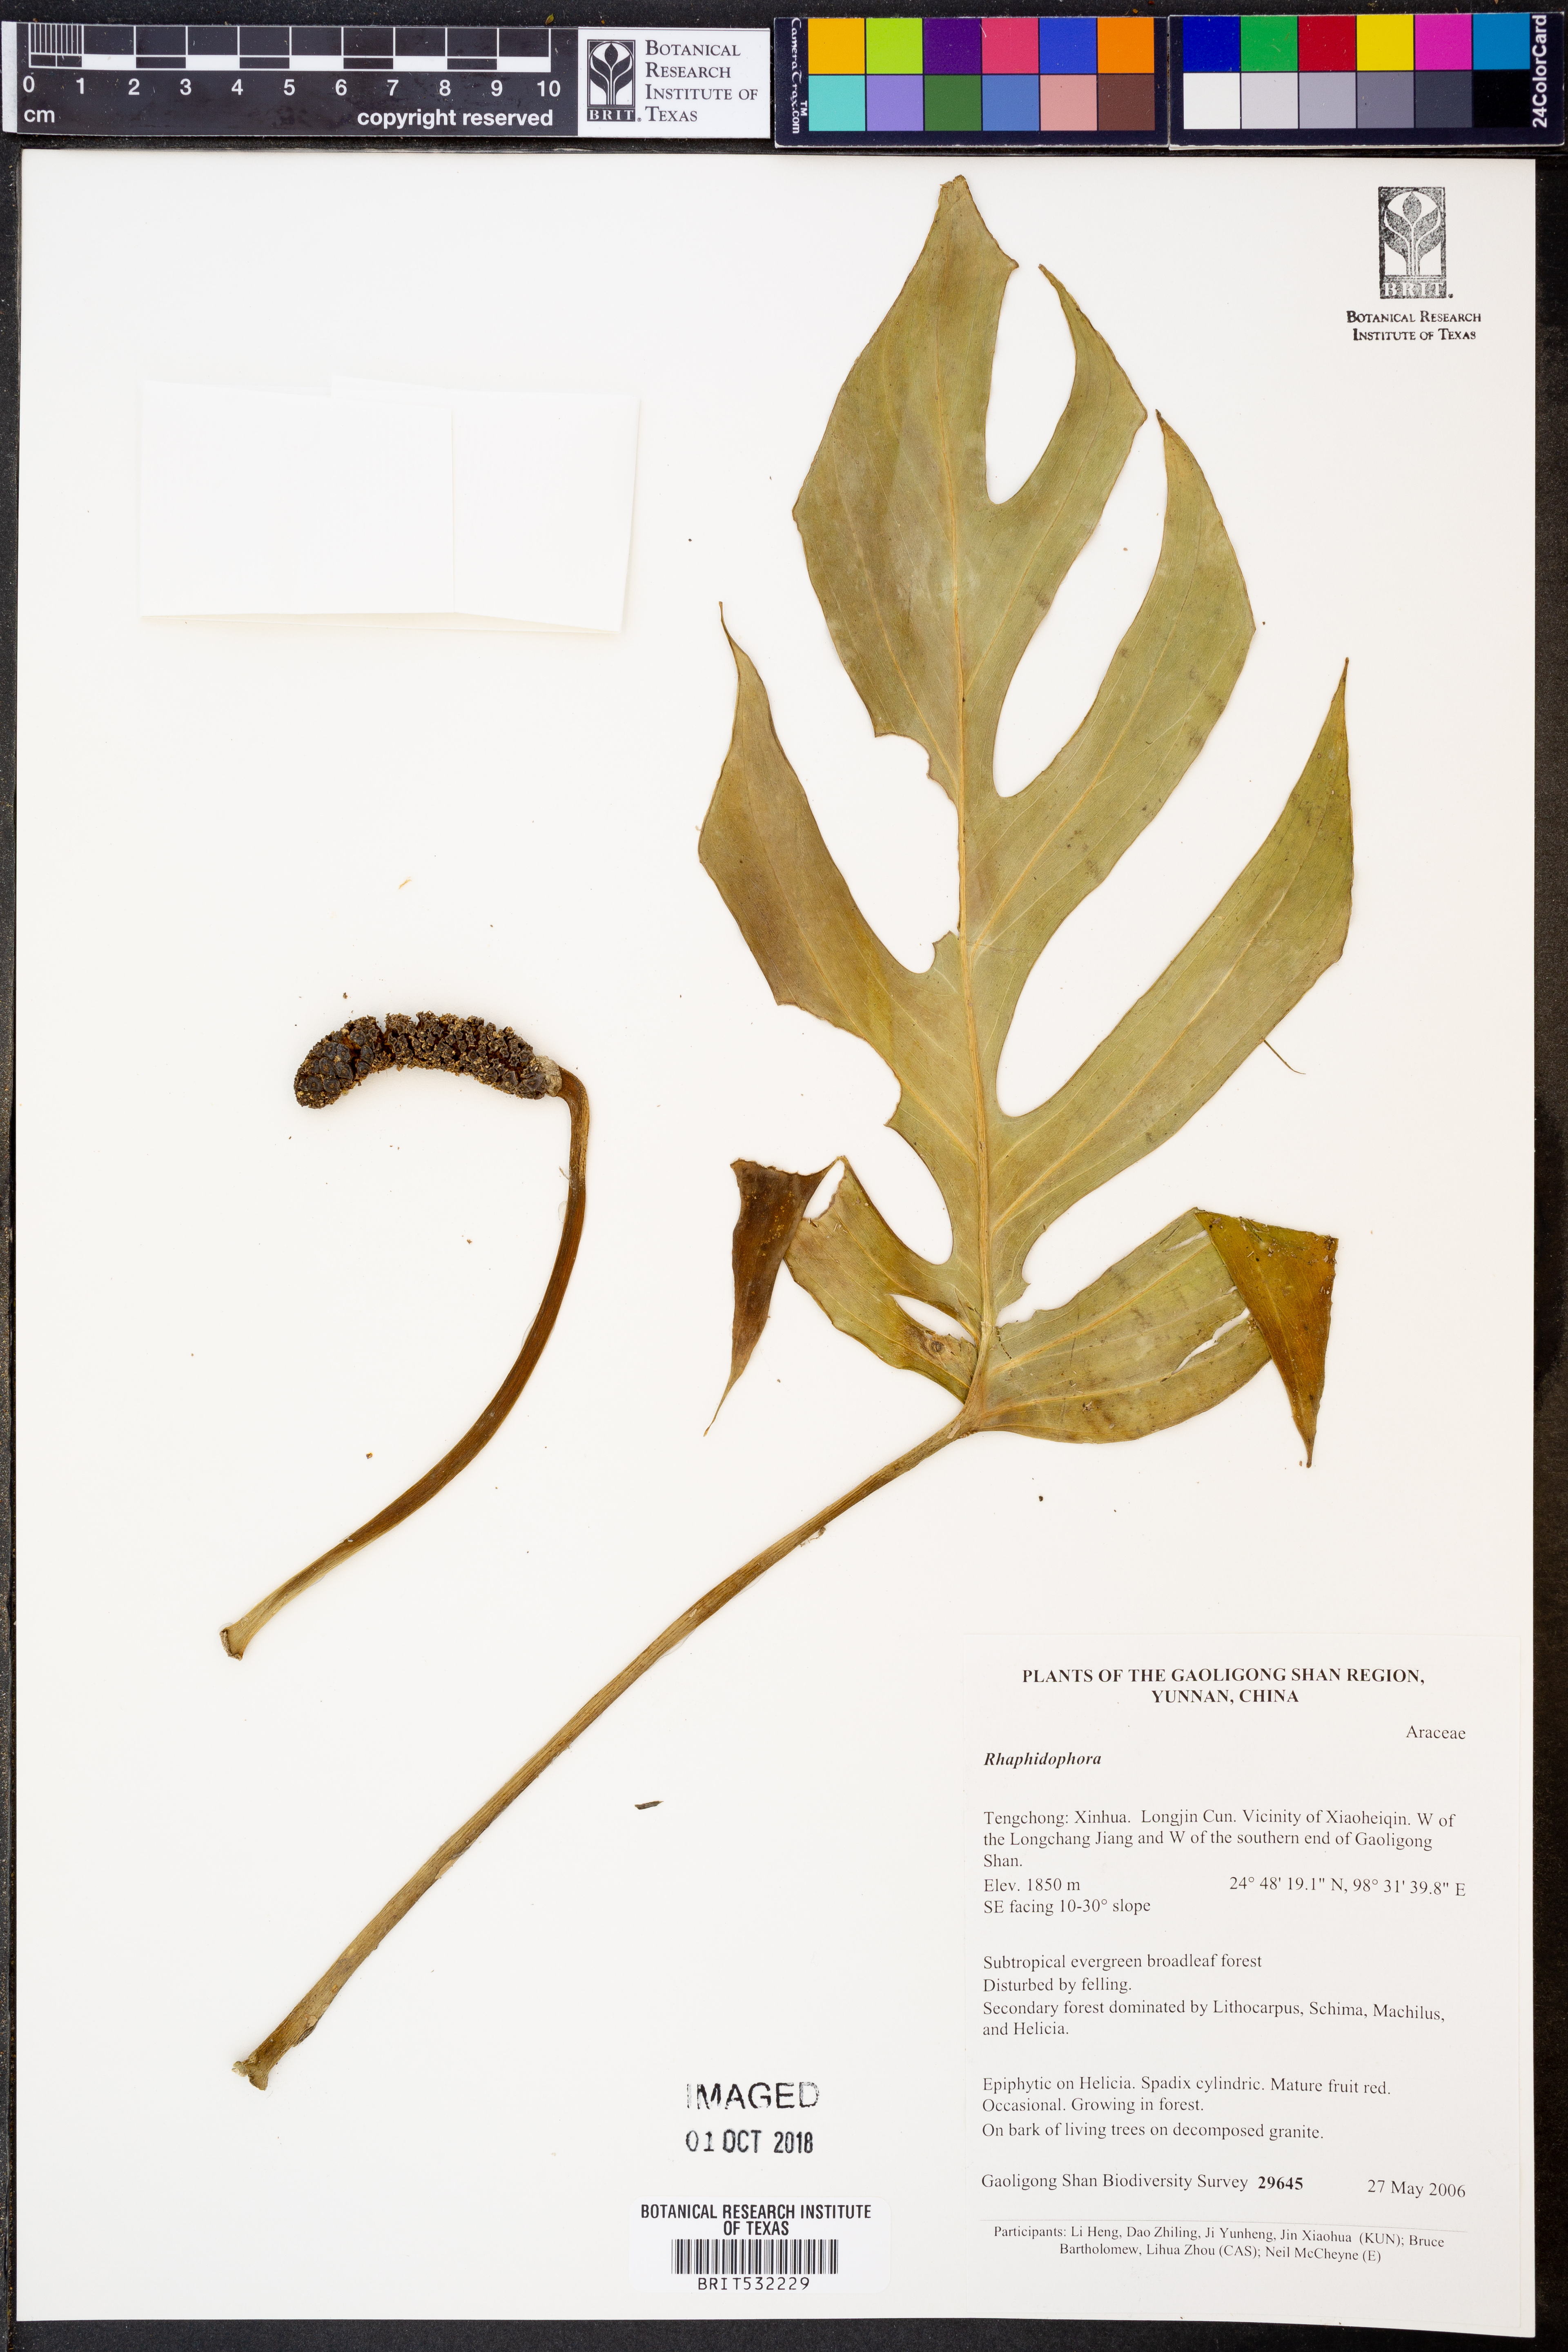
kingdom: Plantae
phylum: Tracheophyta
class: Liliopsida
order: Alismatales
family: Araceae
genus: Rhaphidophora
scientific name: Rhaphidophora
